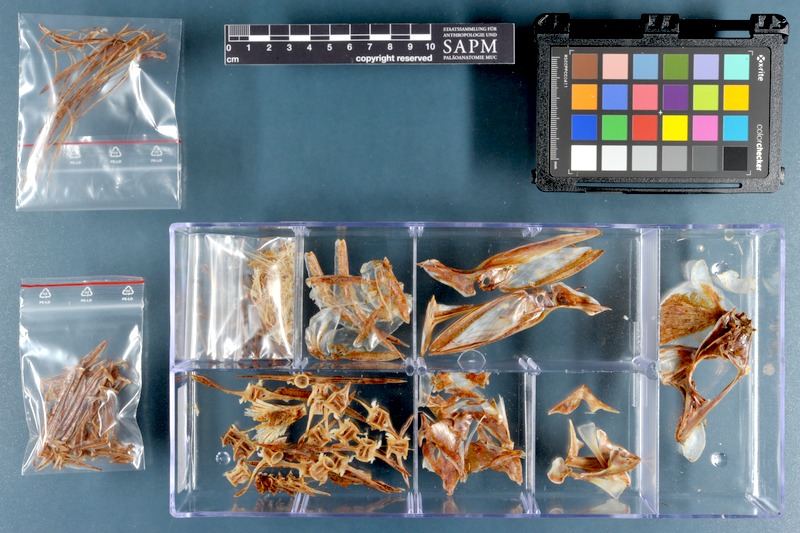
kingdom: Animalia
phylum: Chordata
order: Perciformes
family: Carangidae
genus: Selene
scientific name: Selene setapinnis
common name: Moonfish
